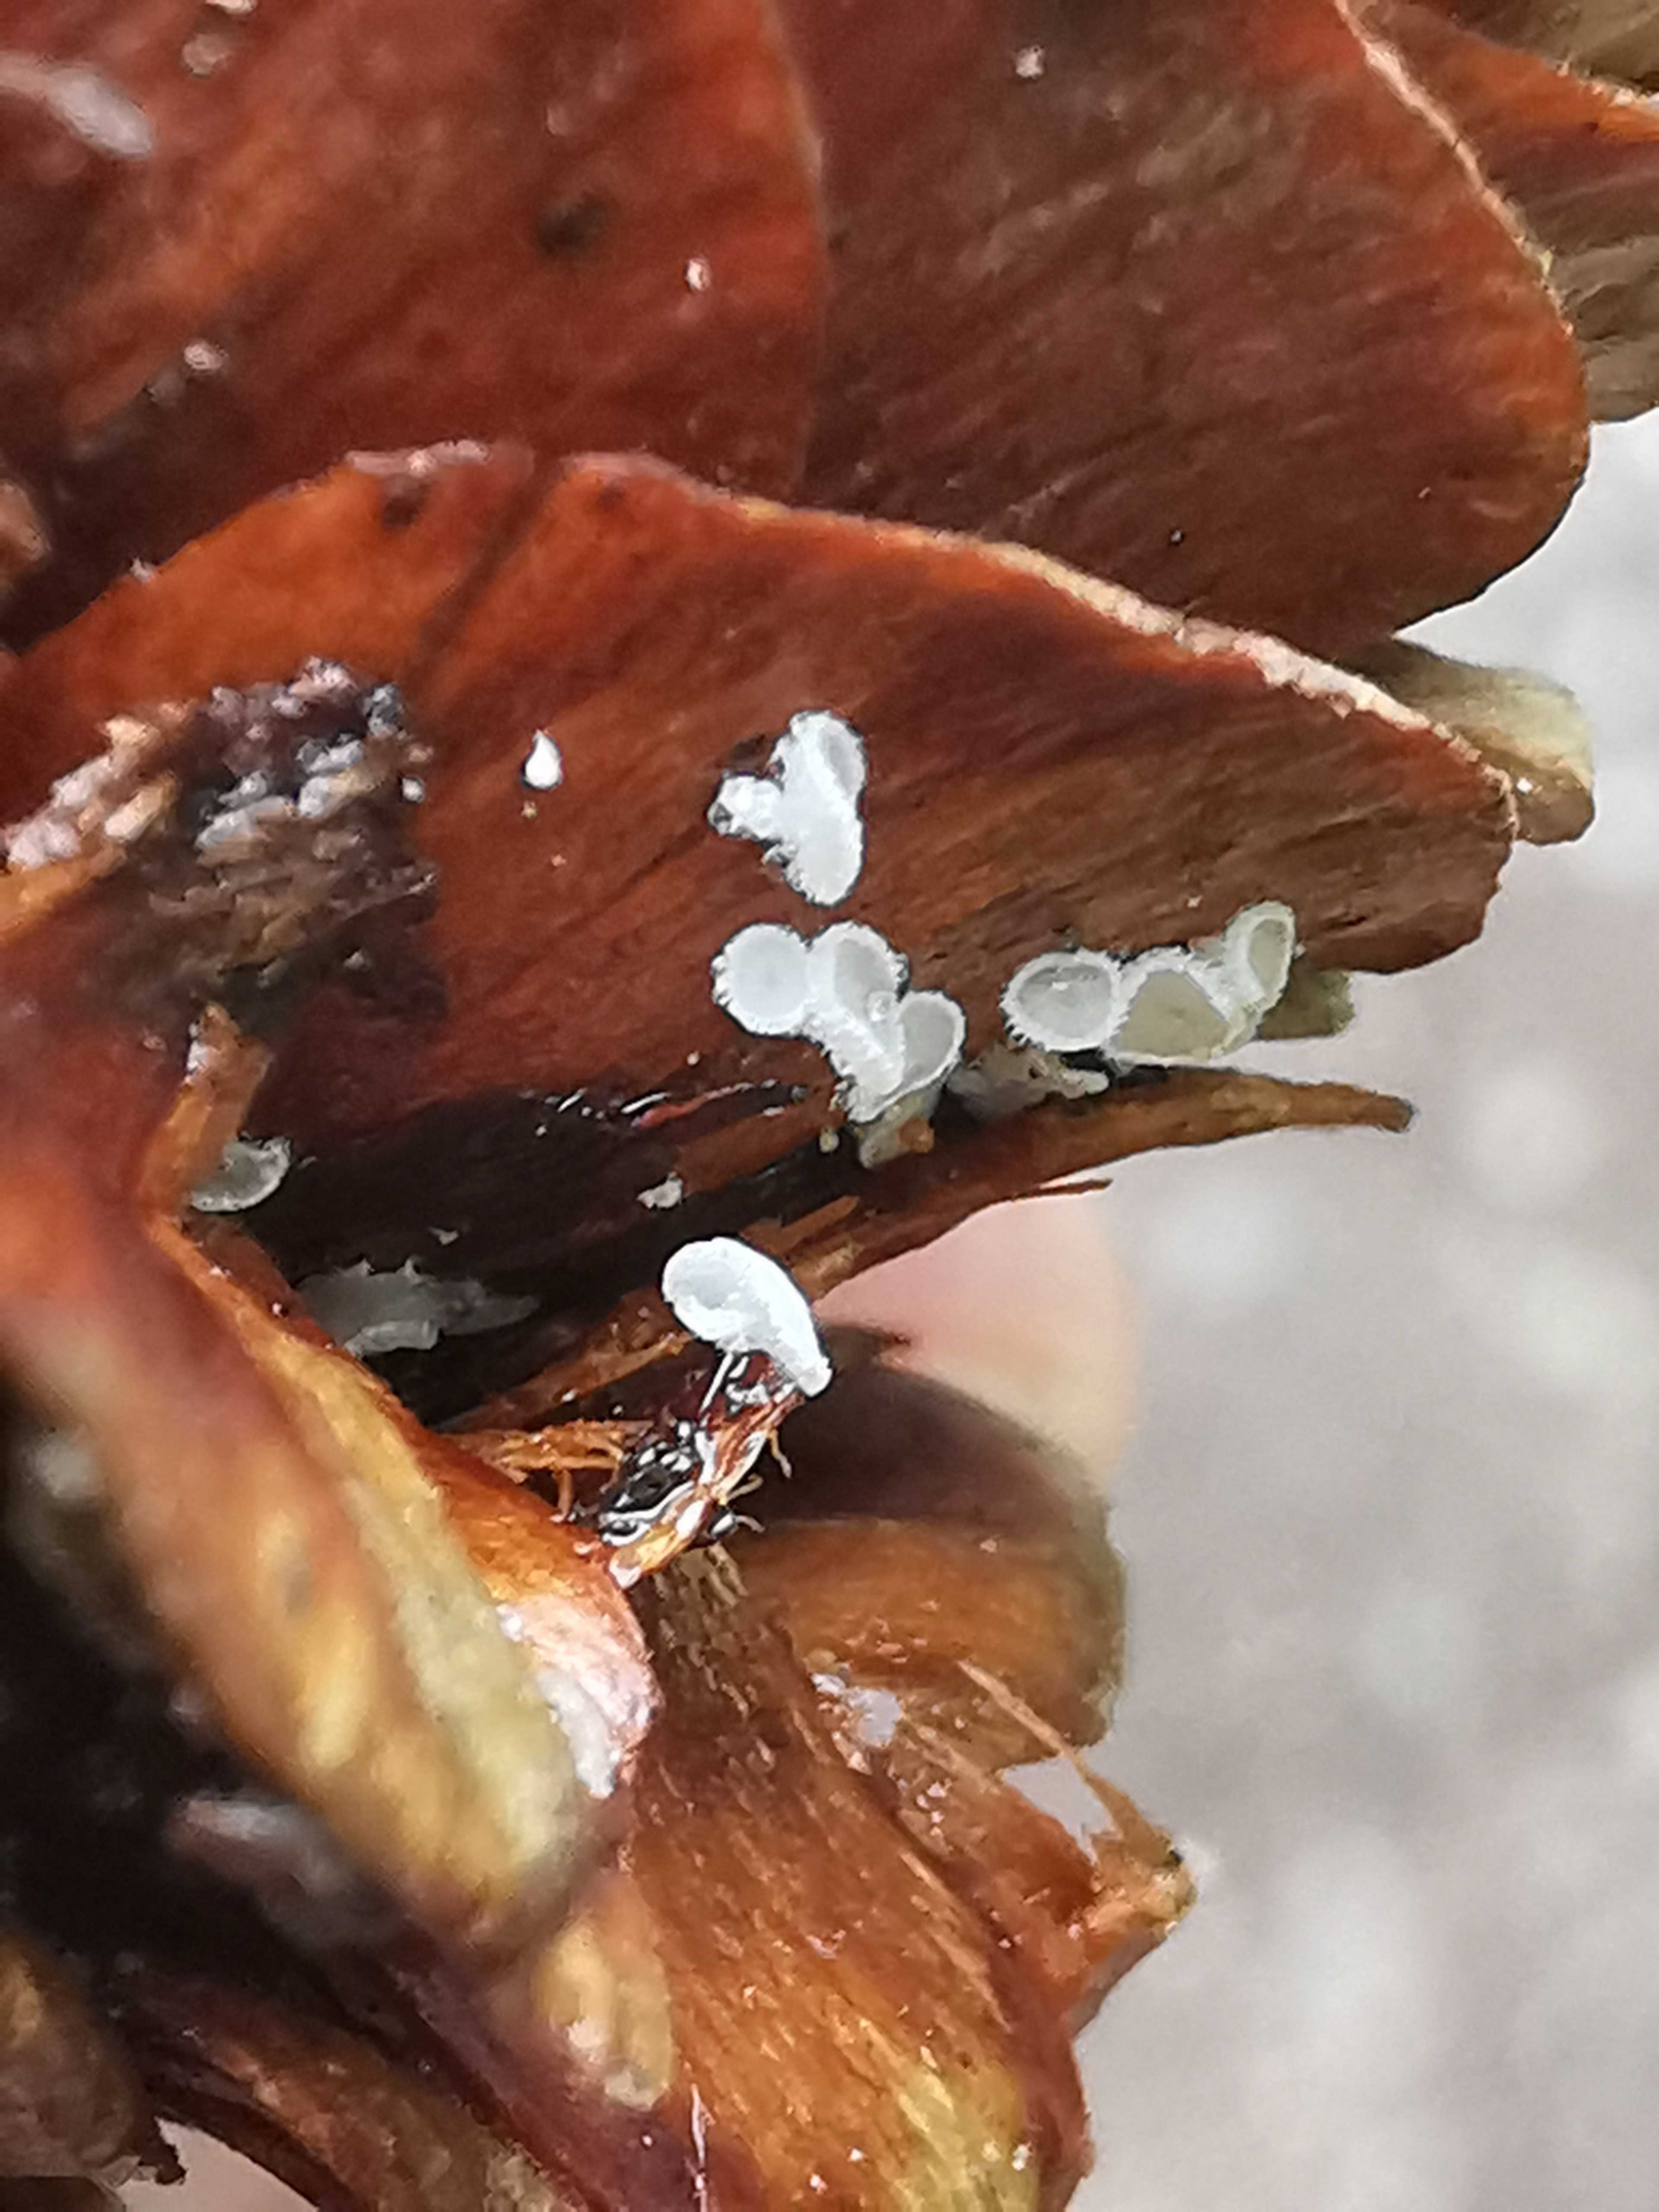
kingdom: Fungi
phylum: Ascomycota
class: Leotiomycetes
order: Helotiales
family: Lachnaceae
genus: Lachnum
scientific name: Lachnum virgineum
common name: jomfru-frynseskive
